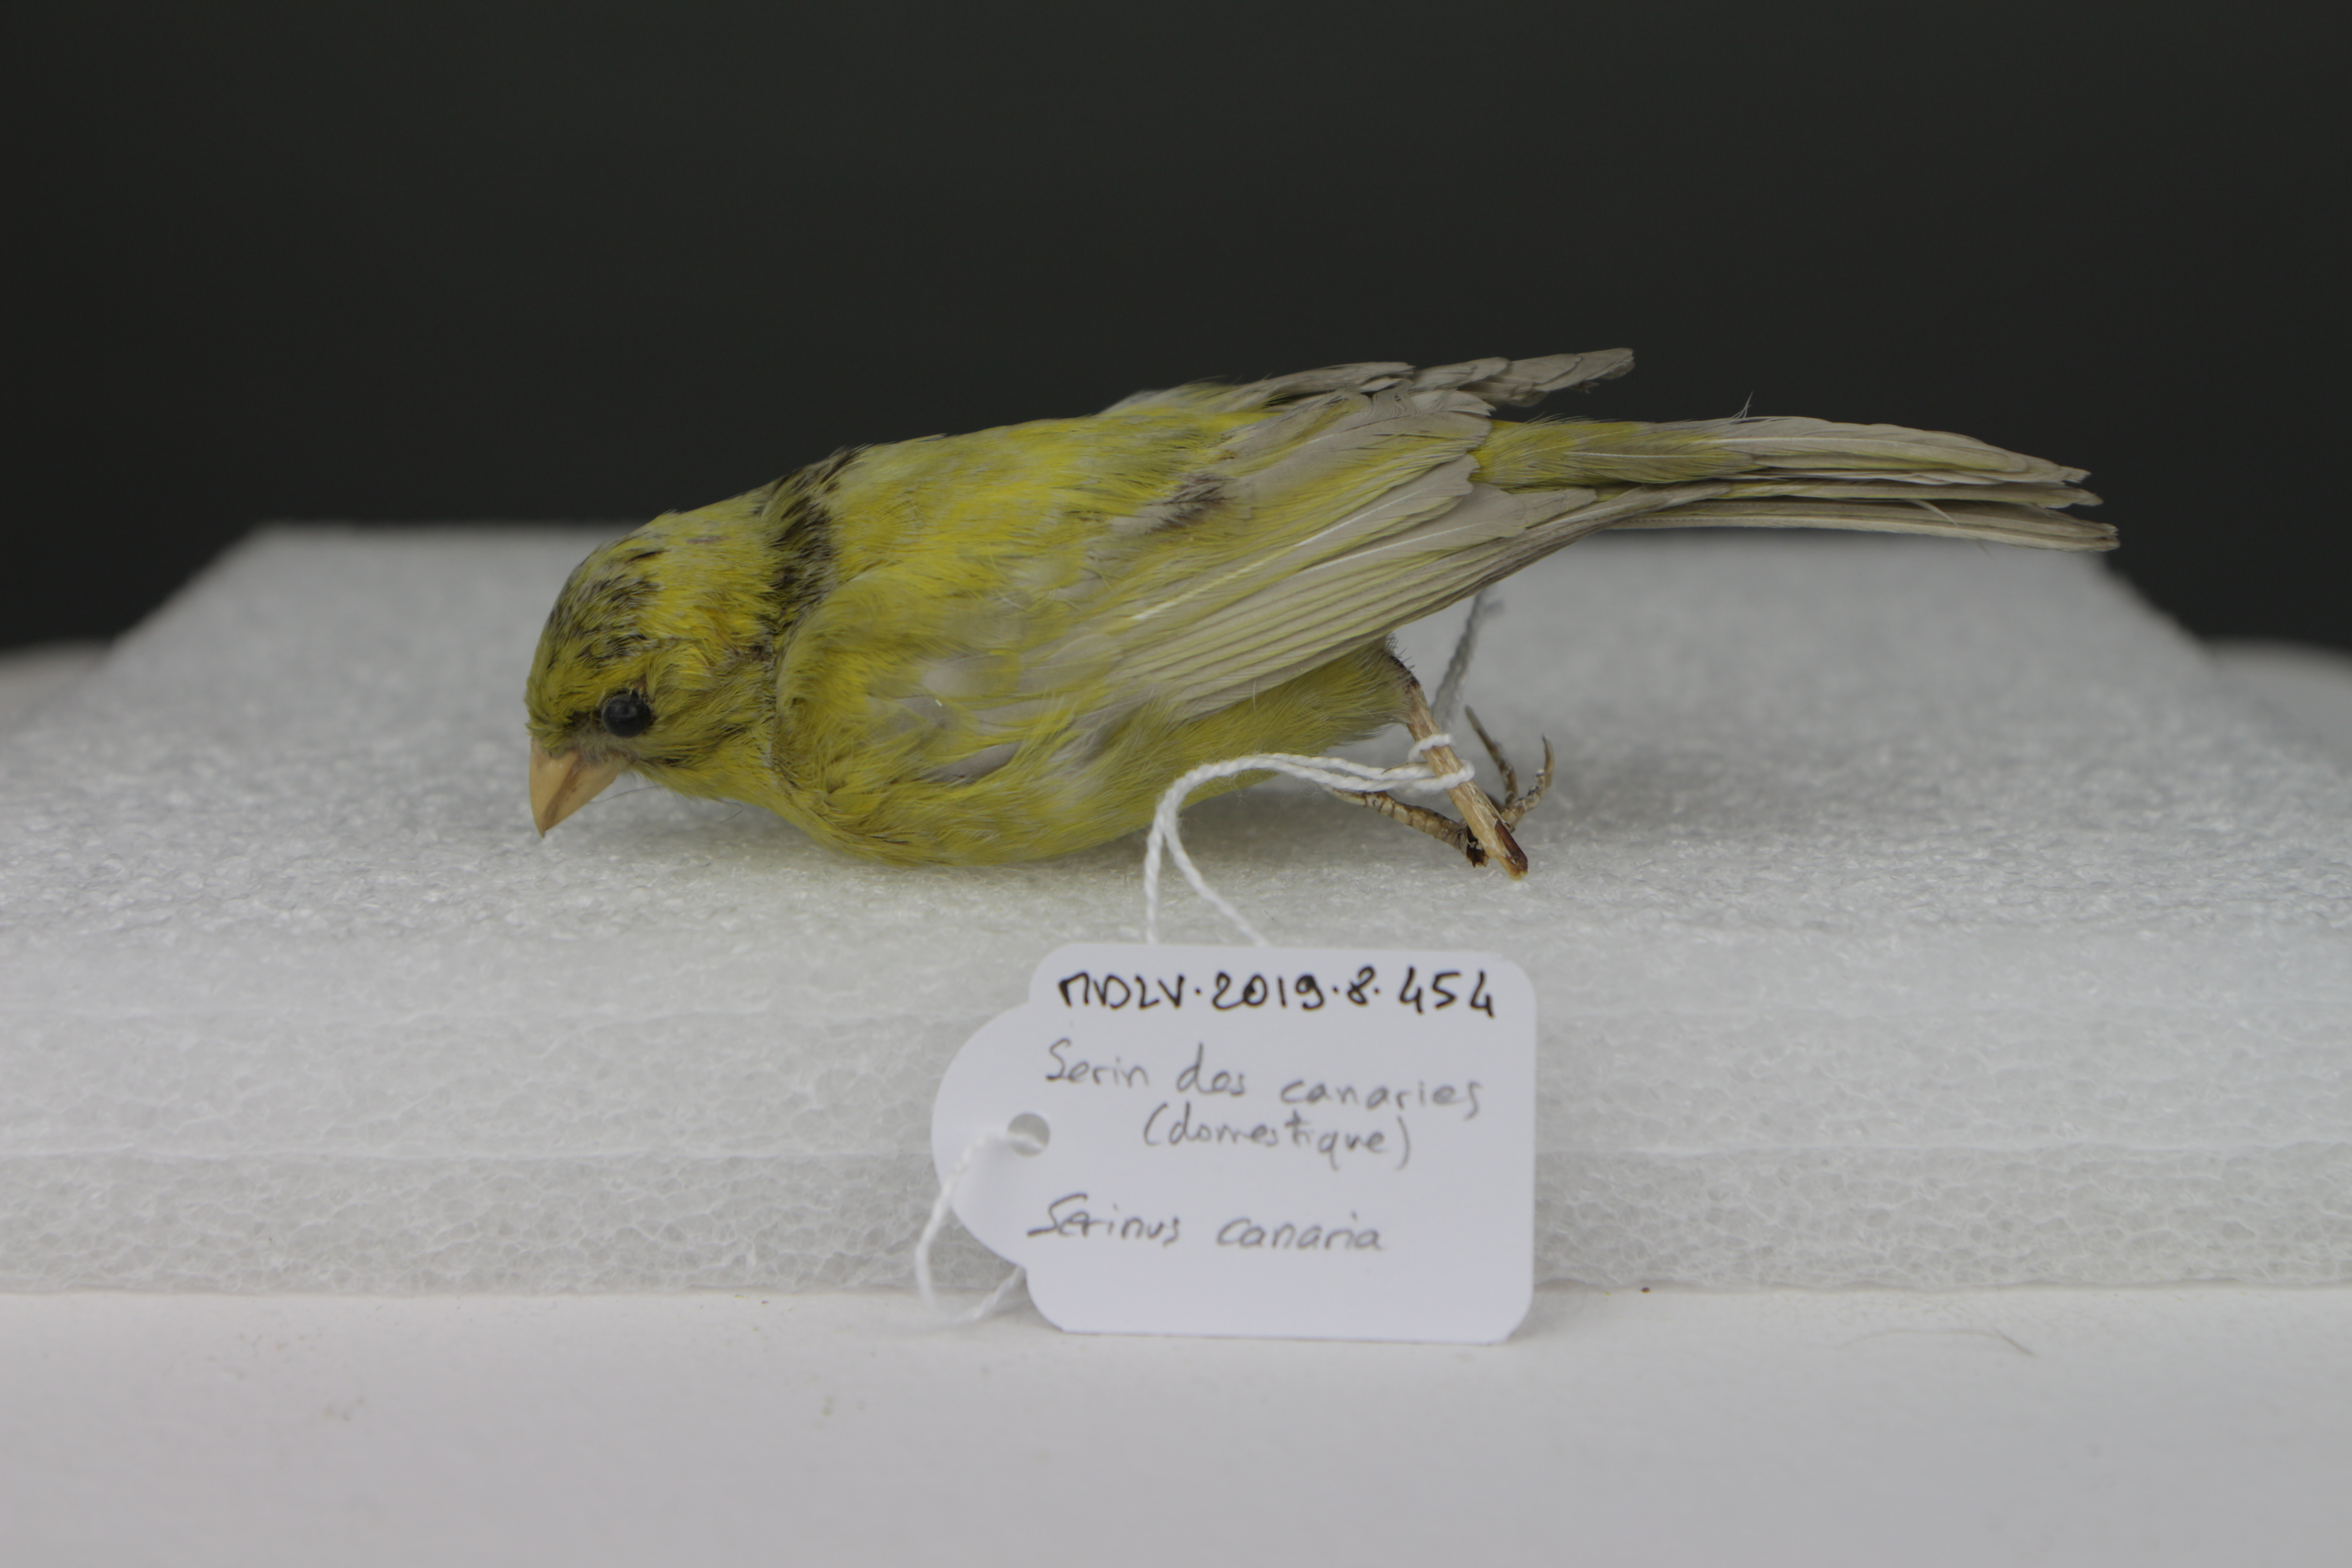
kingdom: Animalia
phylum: Chordata
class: Aves
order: Passeriformes
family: Fringillidae
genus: Serinus
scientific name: Serinus canaria
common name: Atlantic canary
